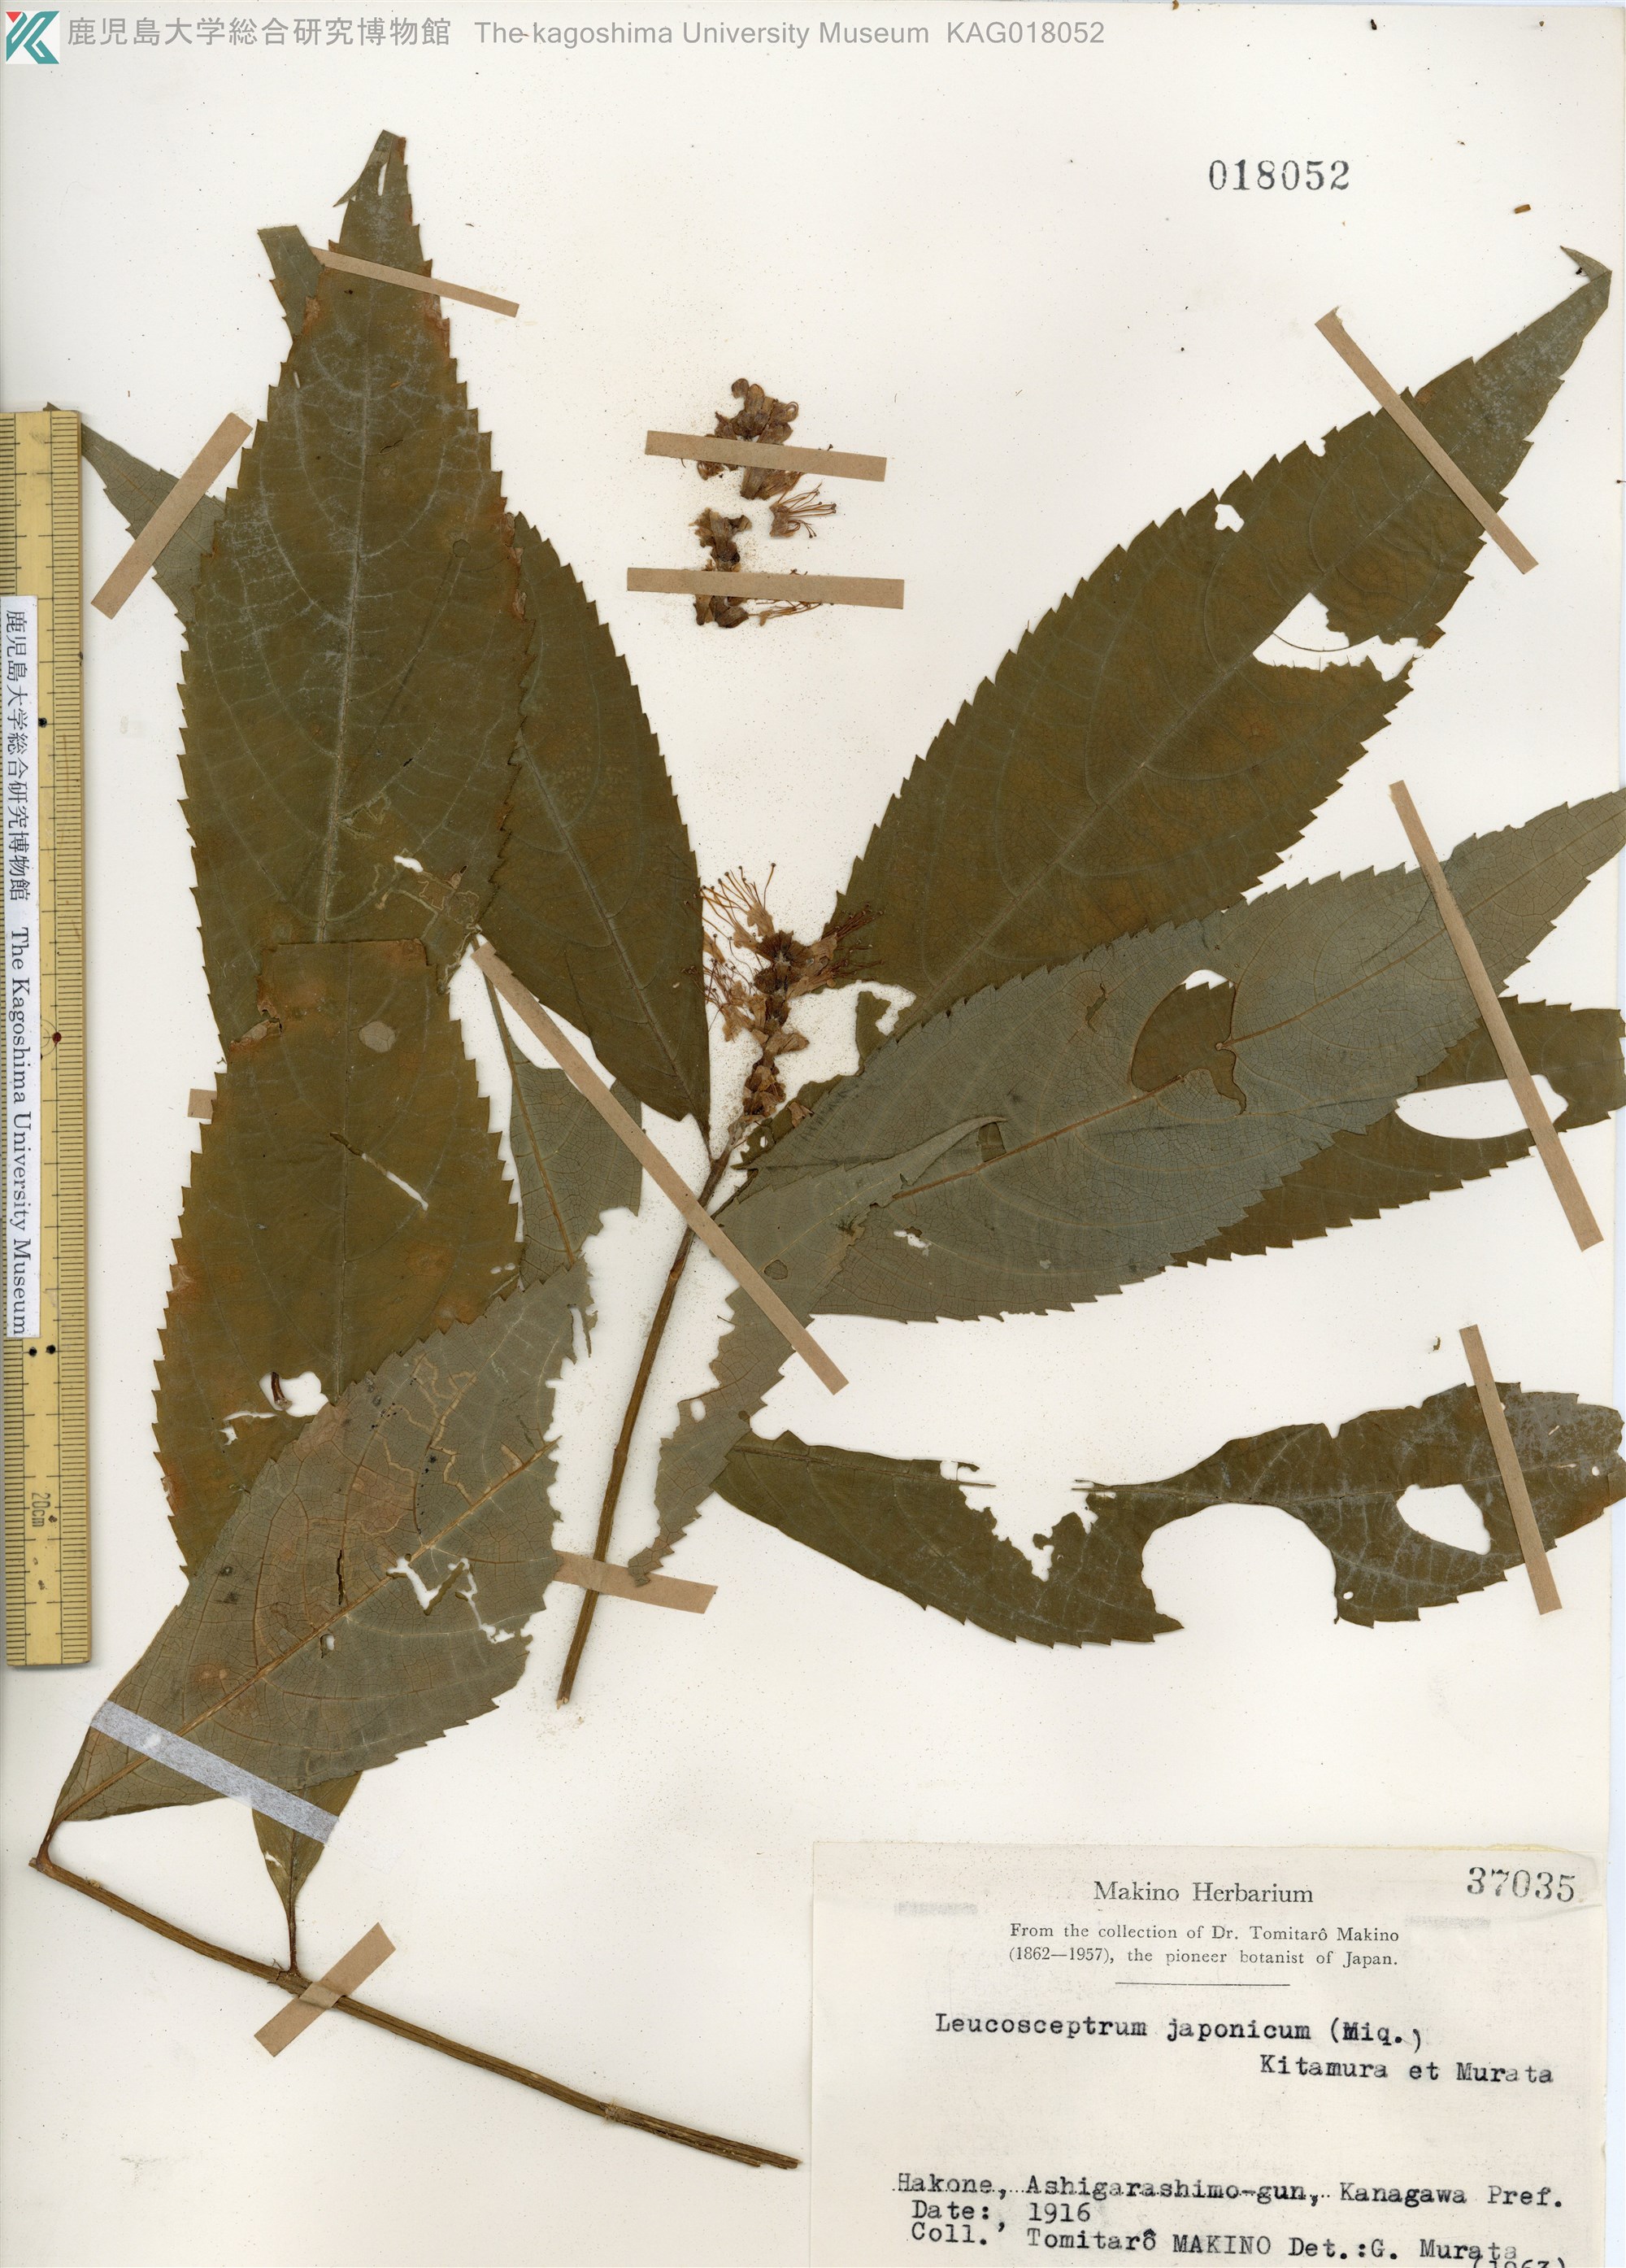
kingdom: Plantae
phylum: Tracheophyta
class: Magnoliopsida
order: Lamiales
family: Lamiaceae
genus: Comanthosphace
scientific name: Comanthosphace japonica
